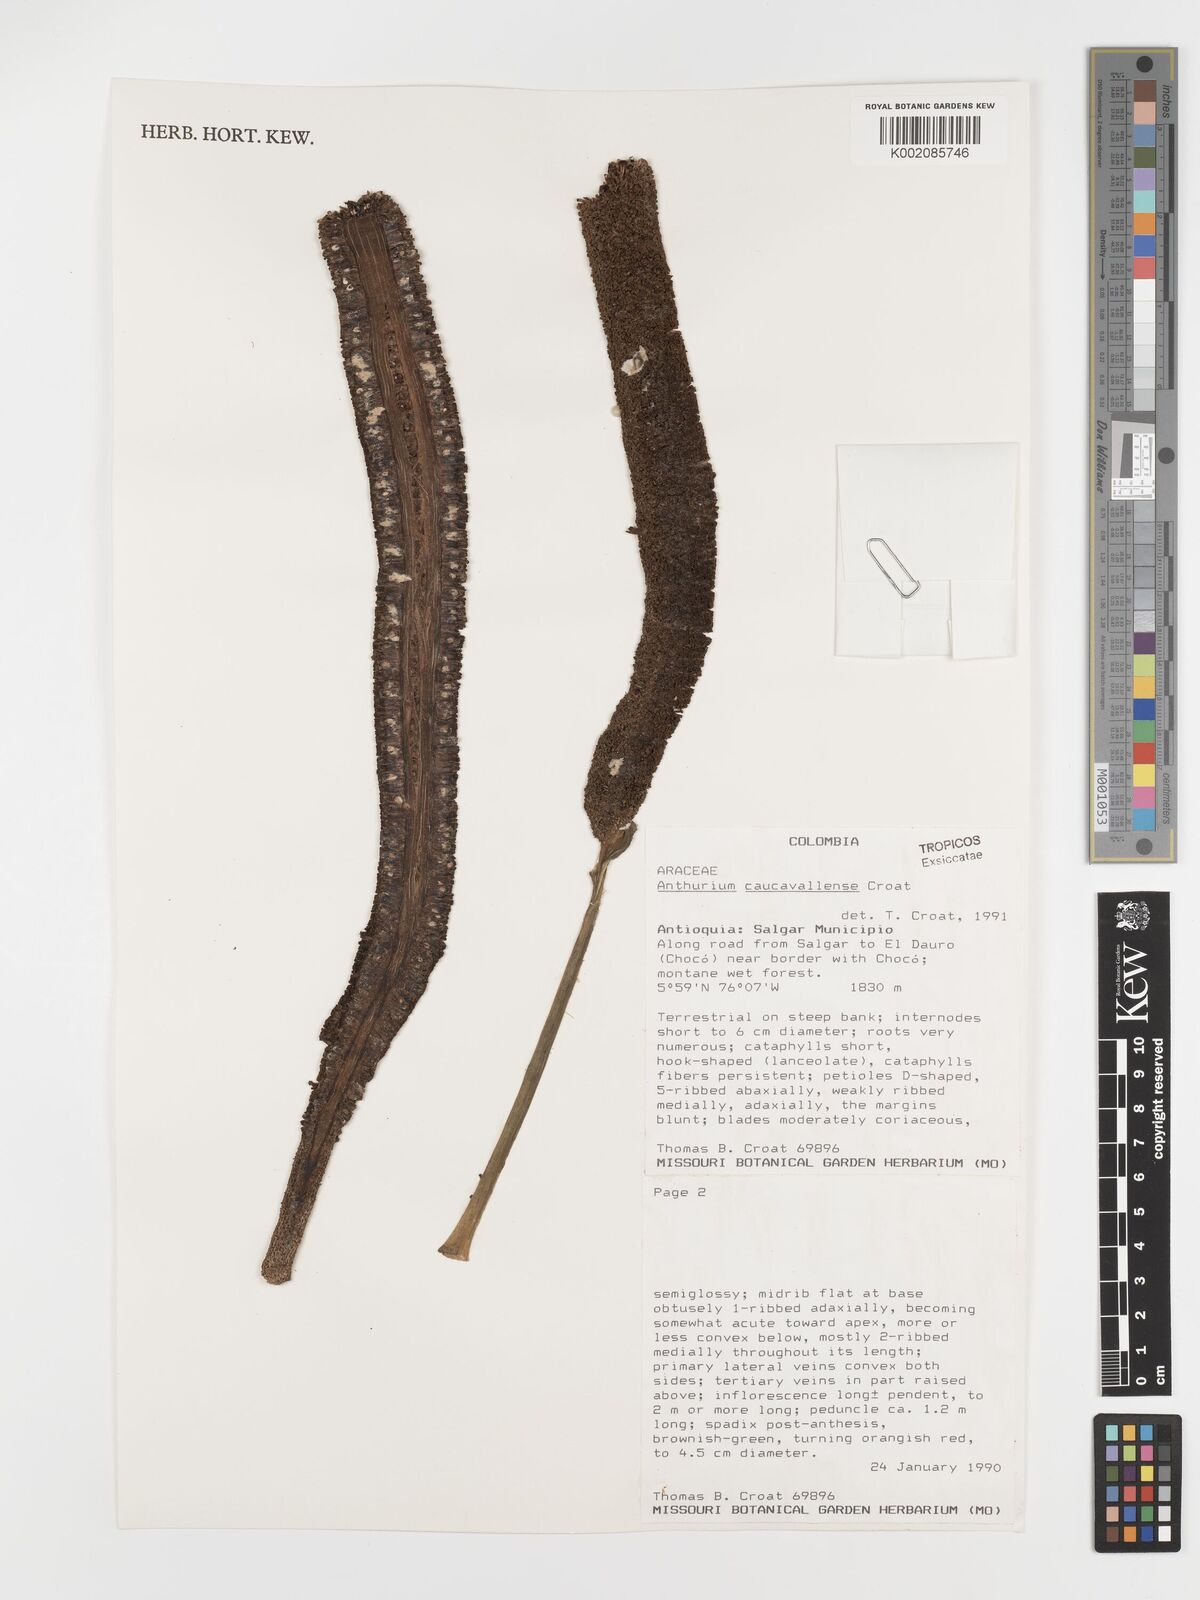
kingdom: Plantae
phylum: Tracheophyta
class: Liliopsida
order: Alismatales
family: Araceae
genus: Anthurium
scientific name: Anthurium caucavallense
